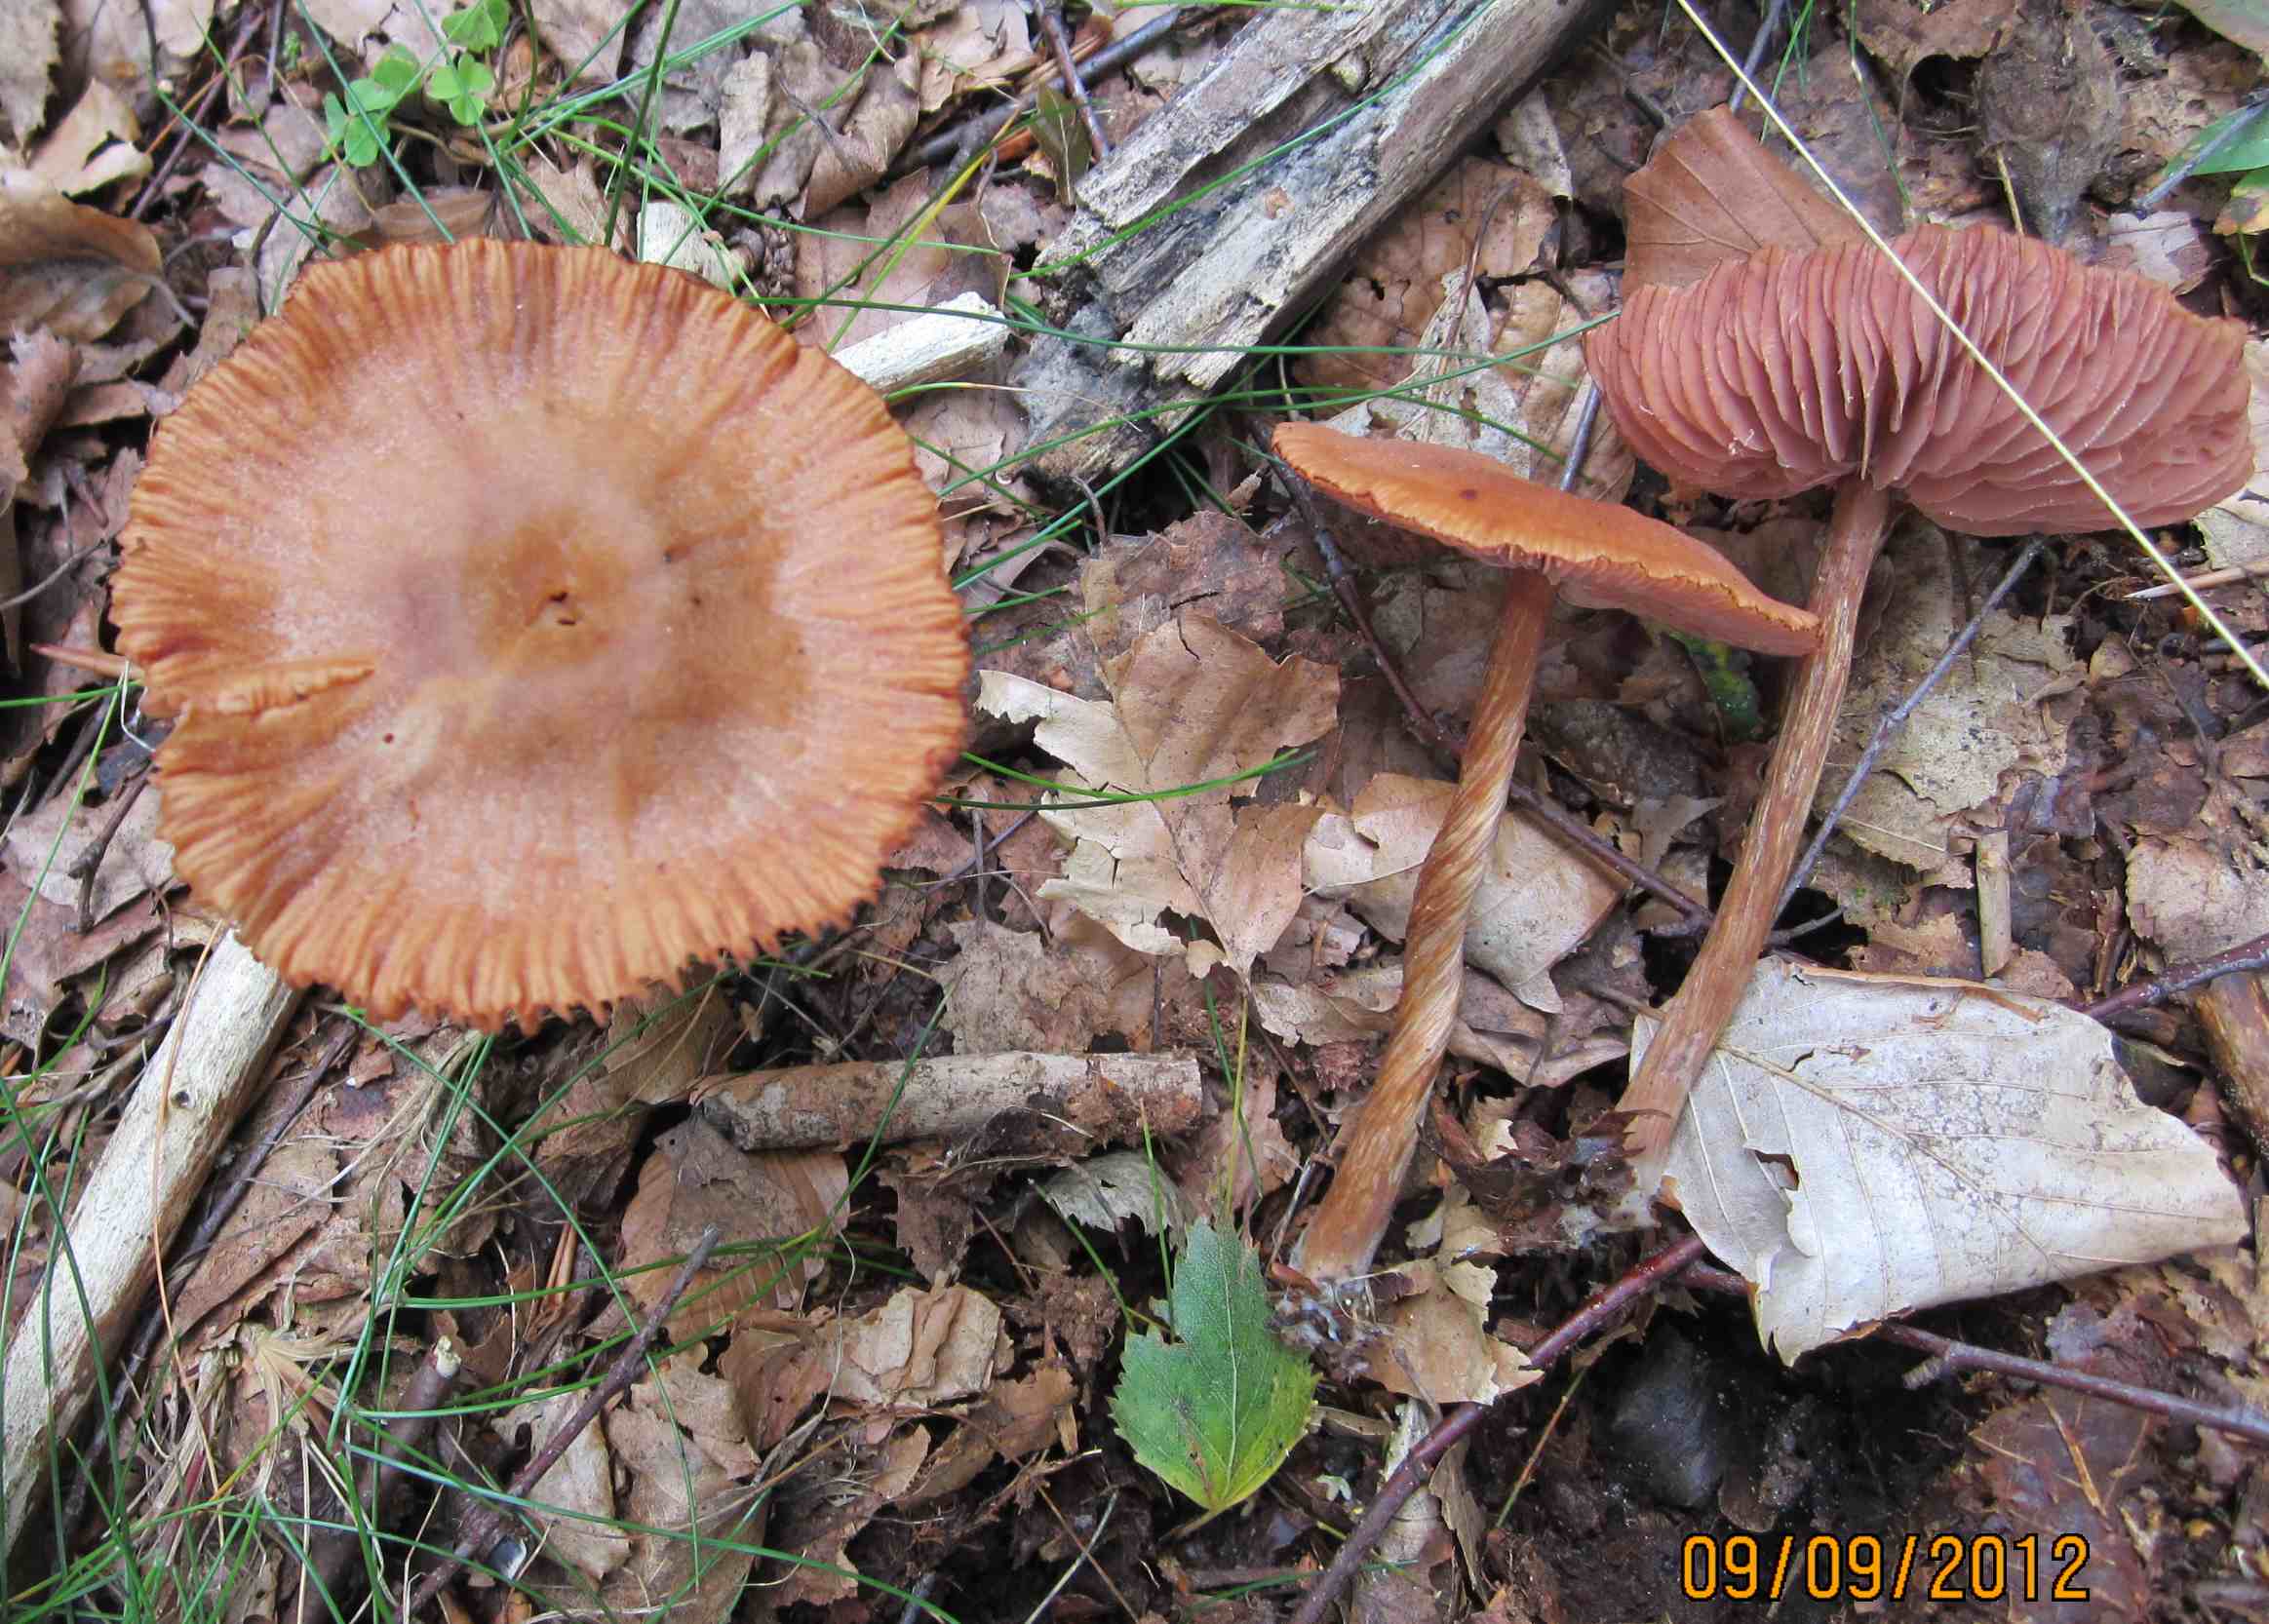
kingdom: Fungi
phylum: Basidiomycota
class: Agaricomycetes
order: Agaricales
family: Hydnangiaceae
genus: Laccaria
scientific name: Laccaria proxima
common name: stor ametysthat
